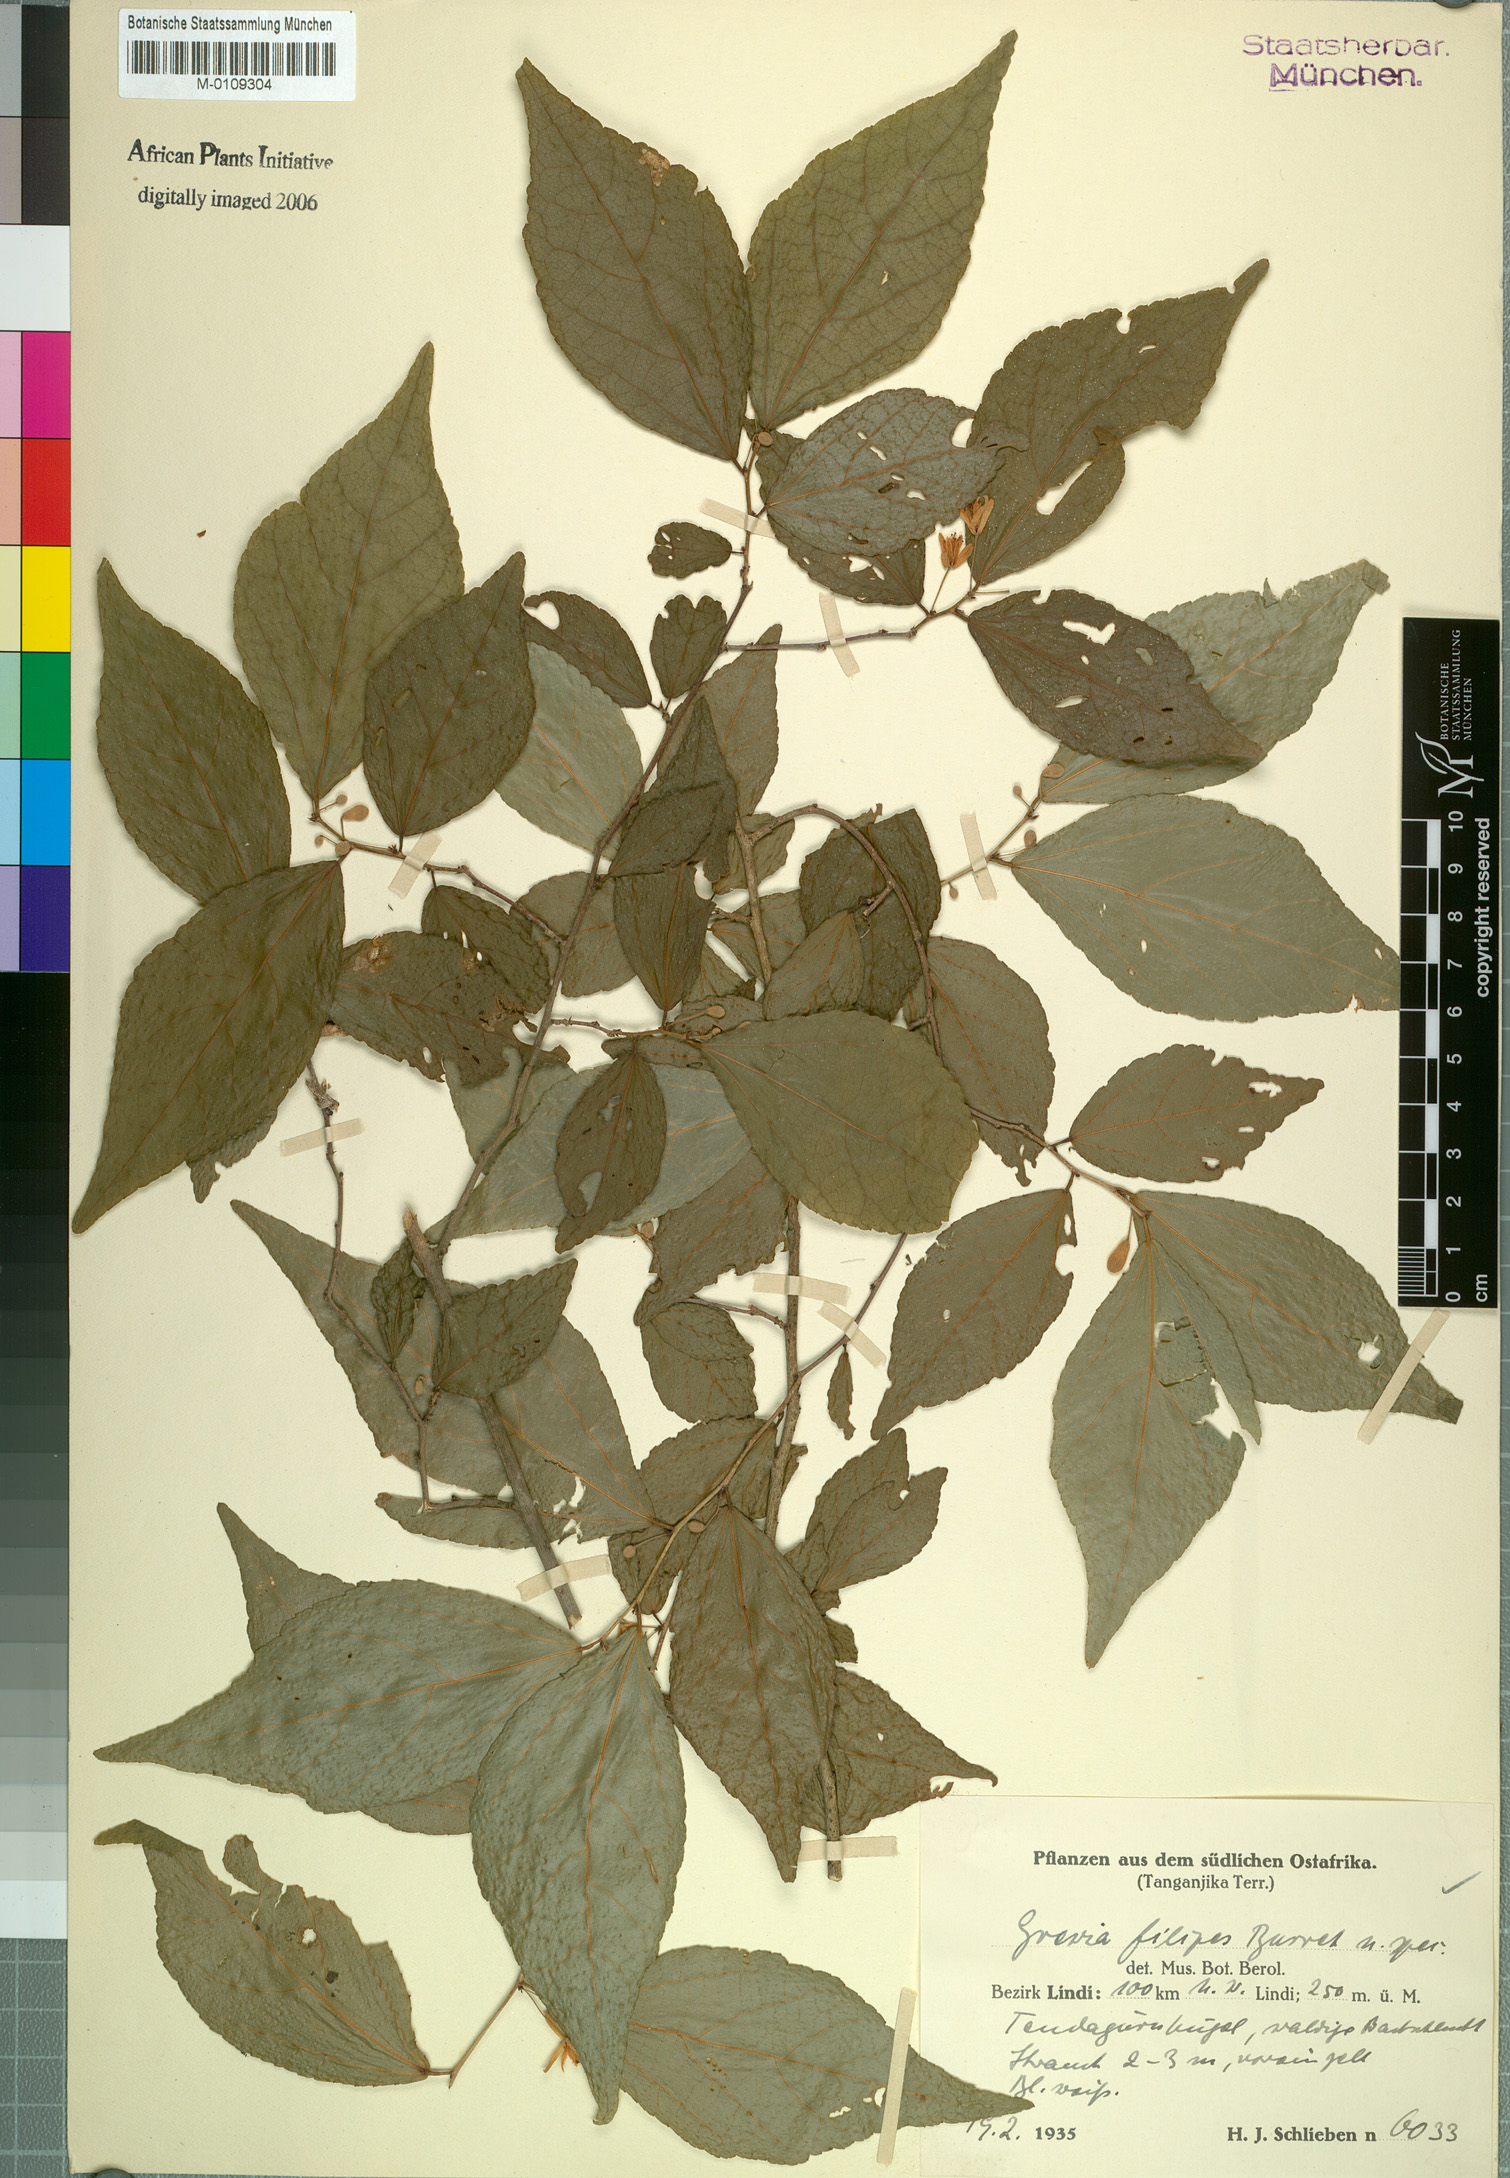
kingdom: Plantae
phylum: Tracheophyta
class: Magnoliopsida
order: Malvales
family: Malvaceae
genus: Grewia
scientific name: Grewia filipes
